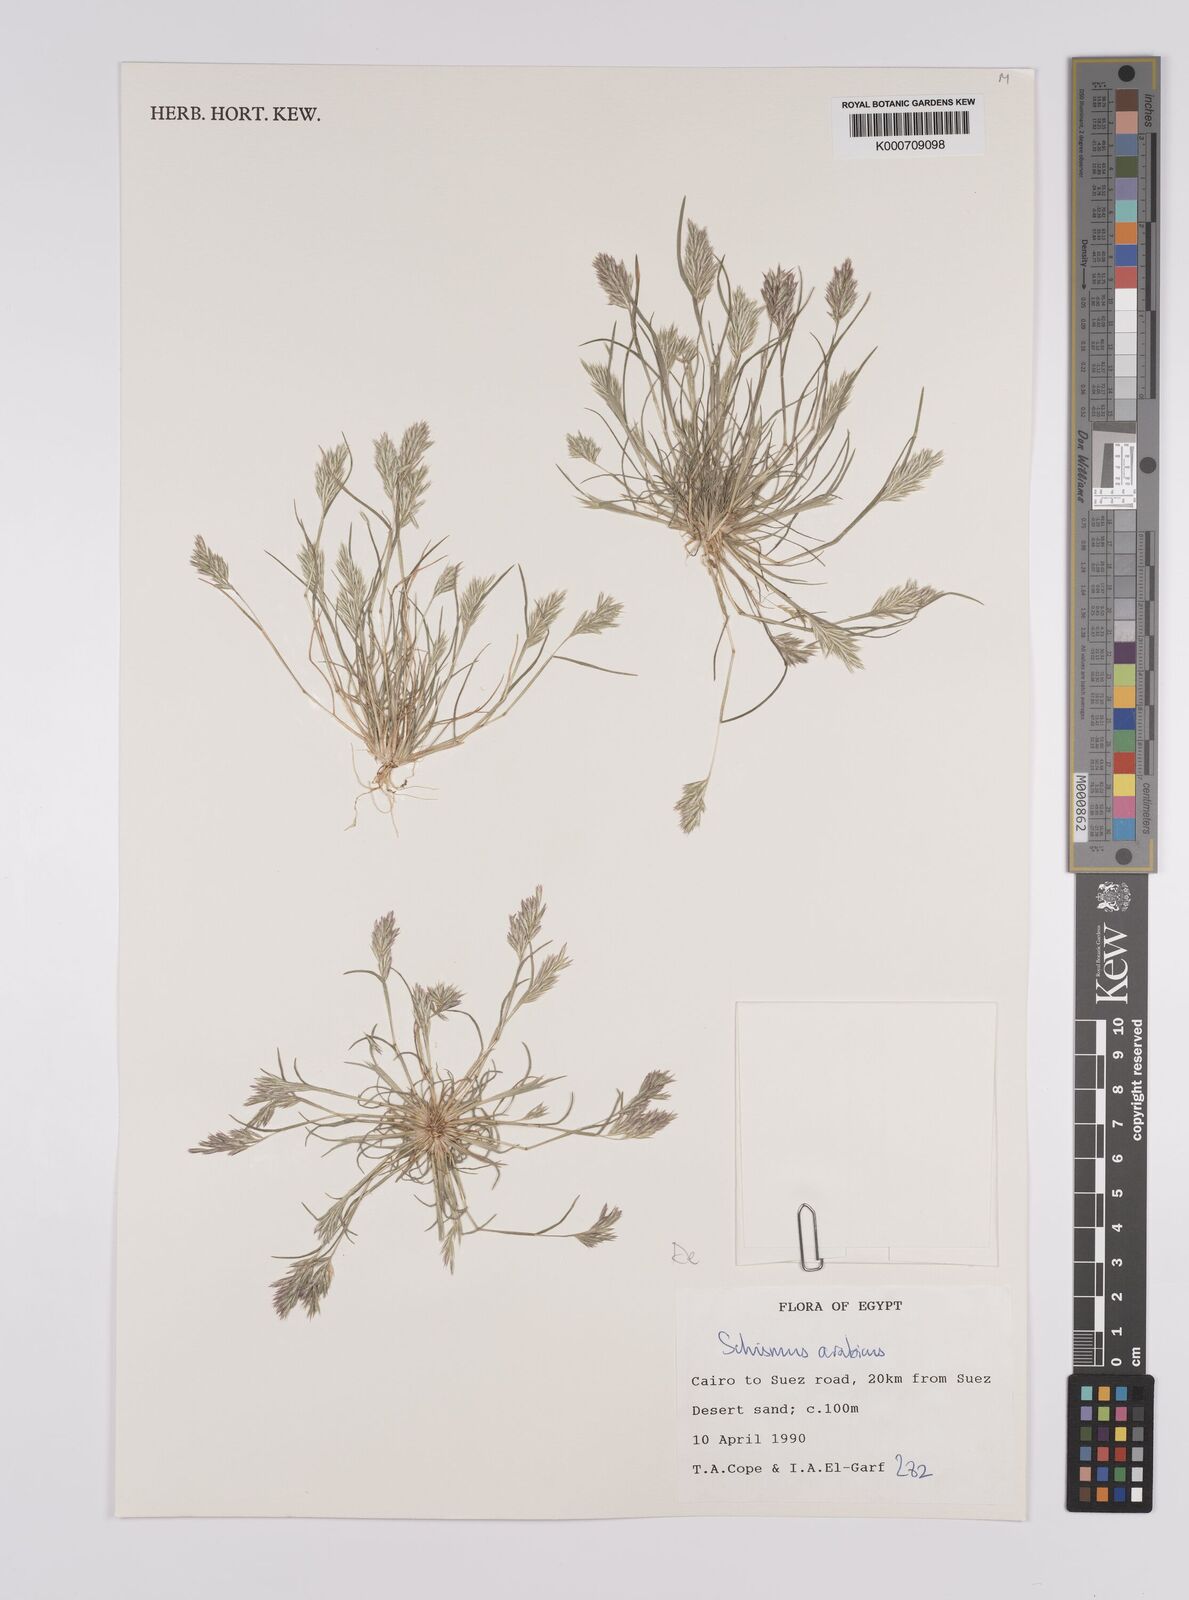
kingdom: Plantae
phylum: Tracheophyta
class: Liliopsida
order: Poales
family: Poaceae
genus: Schismus
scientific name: Schismus arabicus
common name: Arabian schismus
